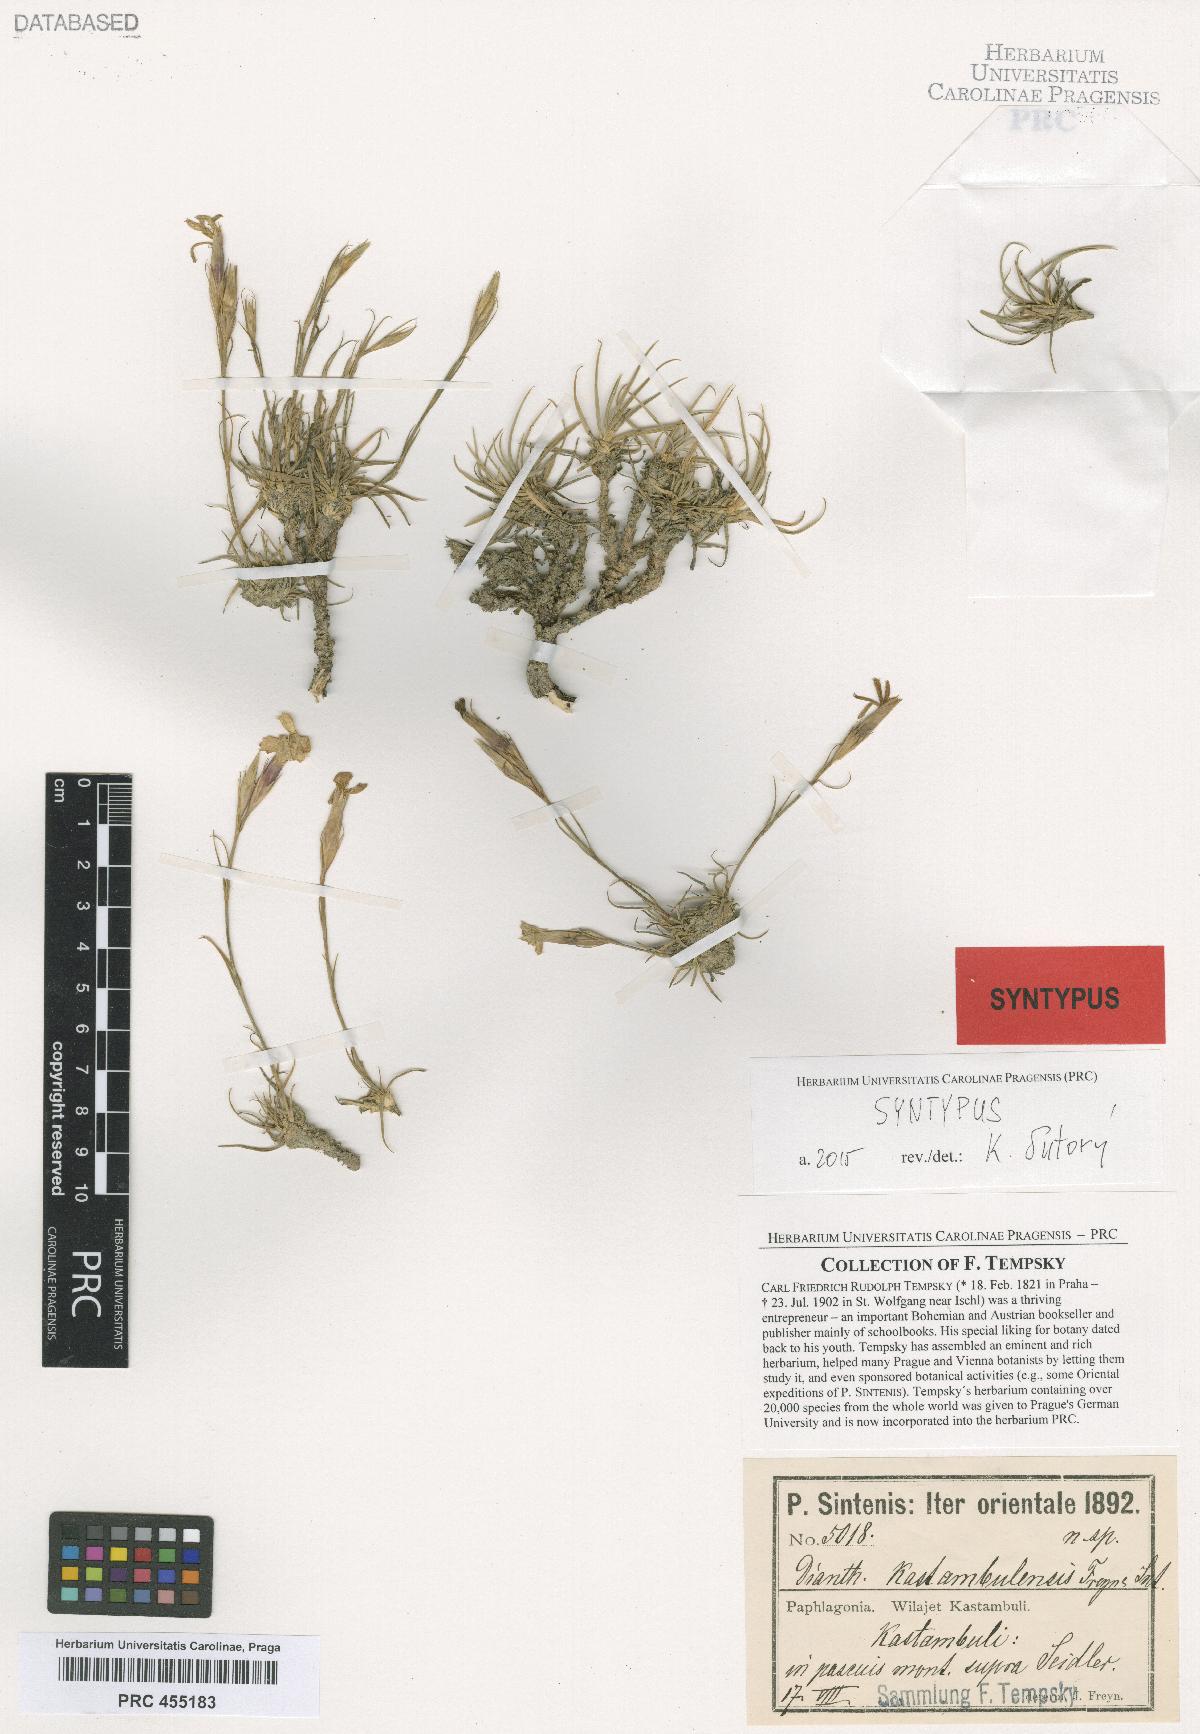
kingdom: Plantae
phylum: Tracheophyta
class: Magnoliopsida
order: Caryophyllales
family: Caryophyllaceae
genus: Dianthus
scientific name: Dianthus kastembeluensis
